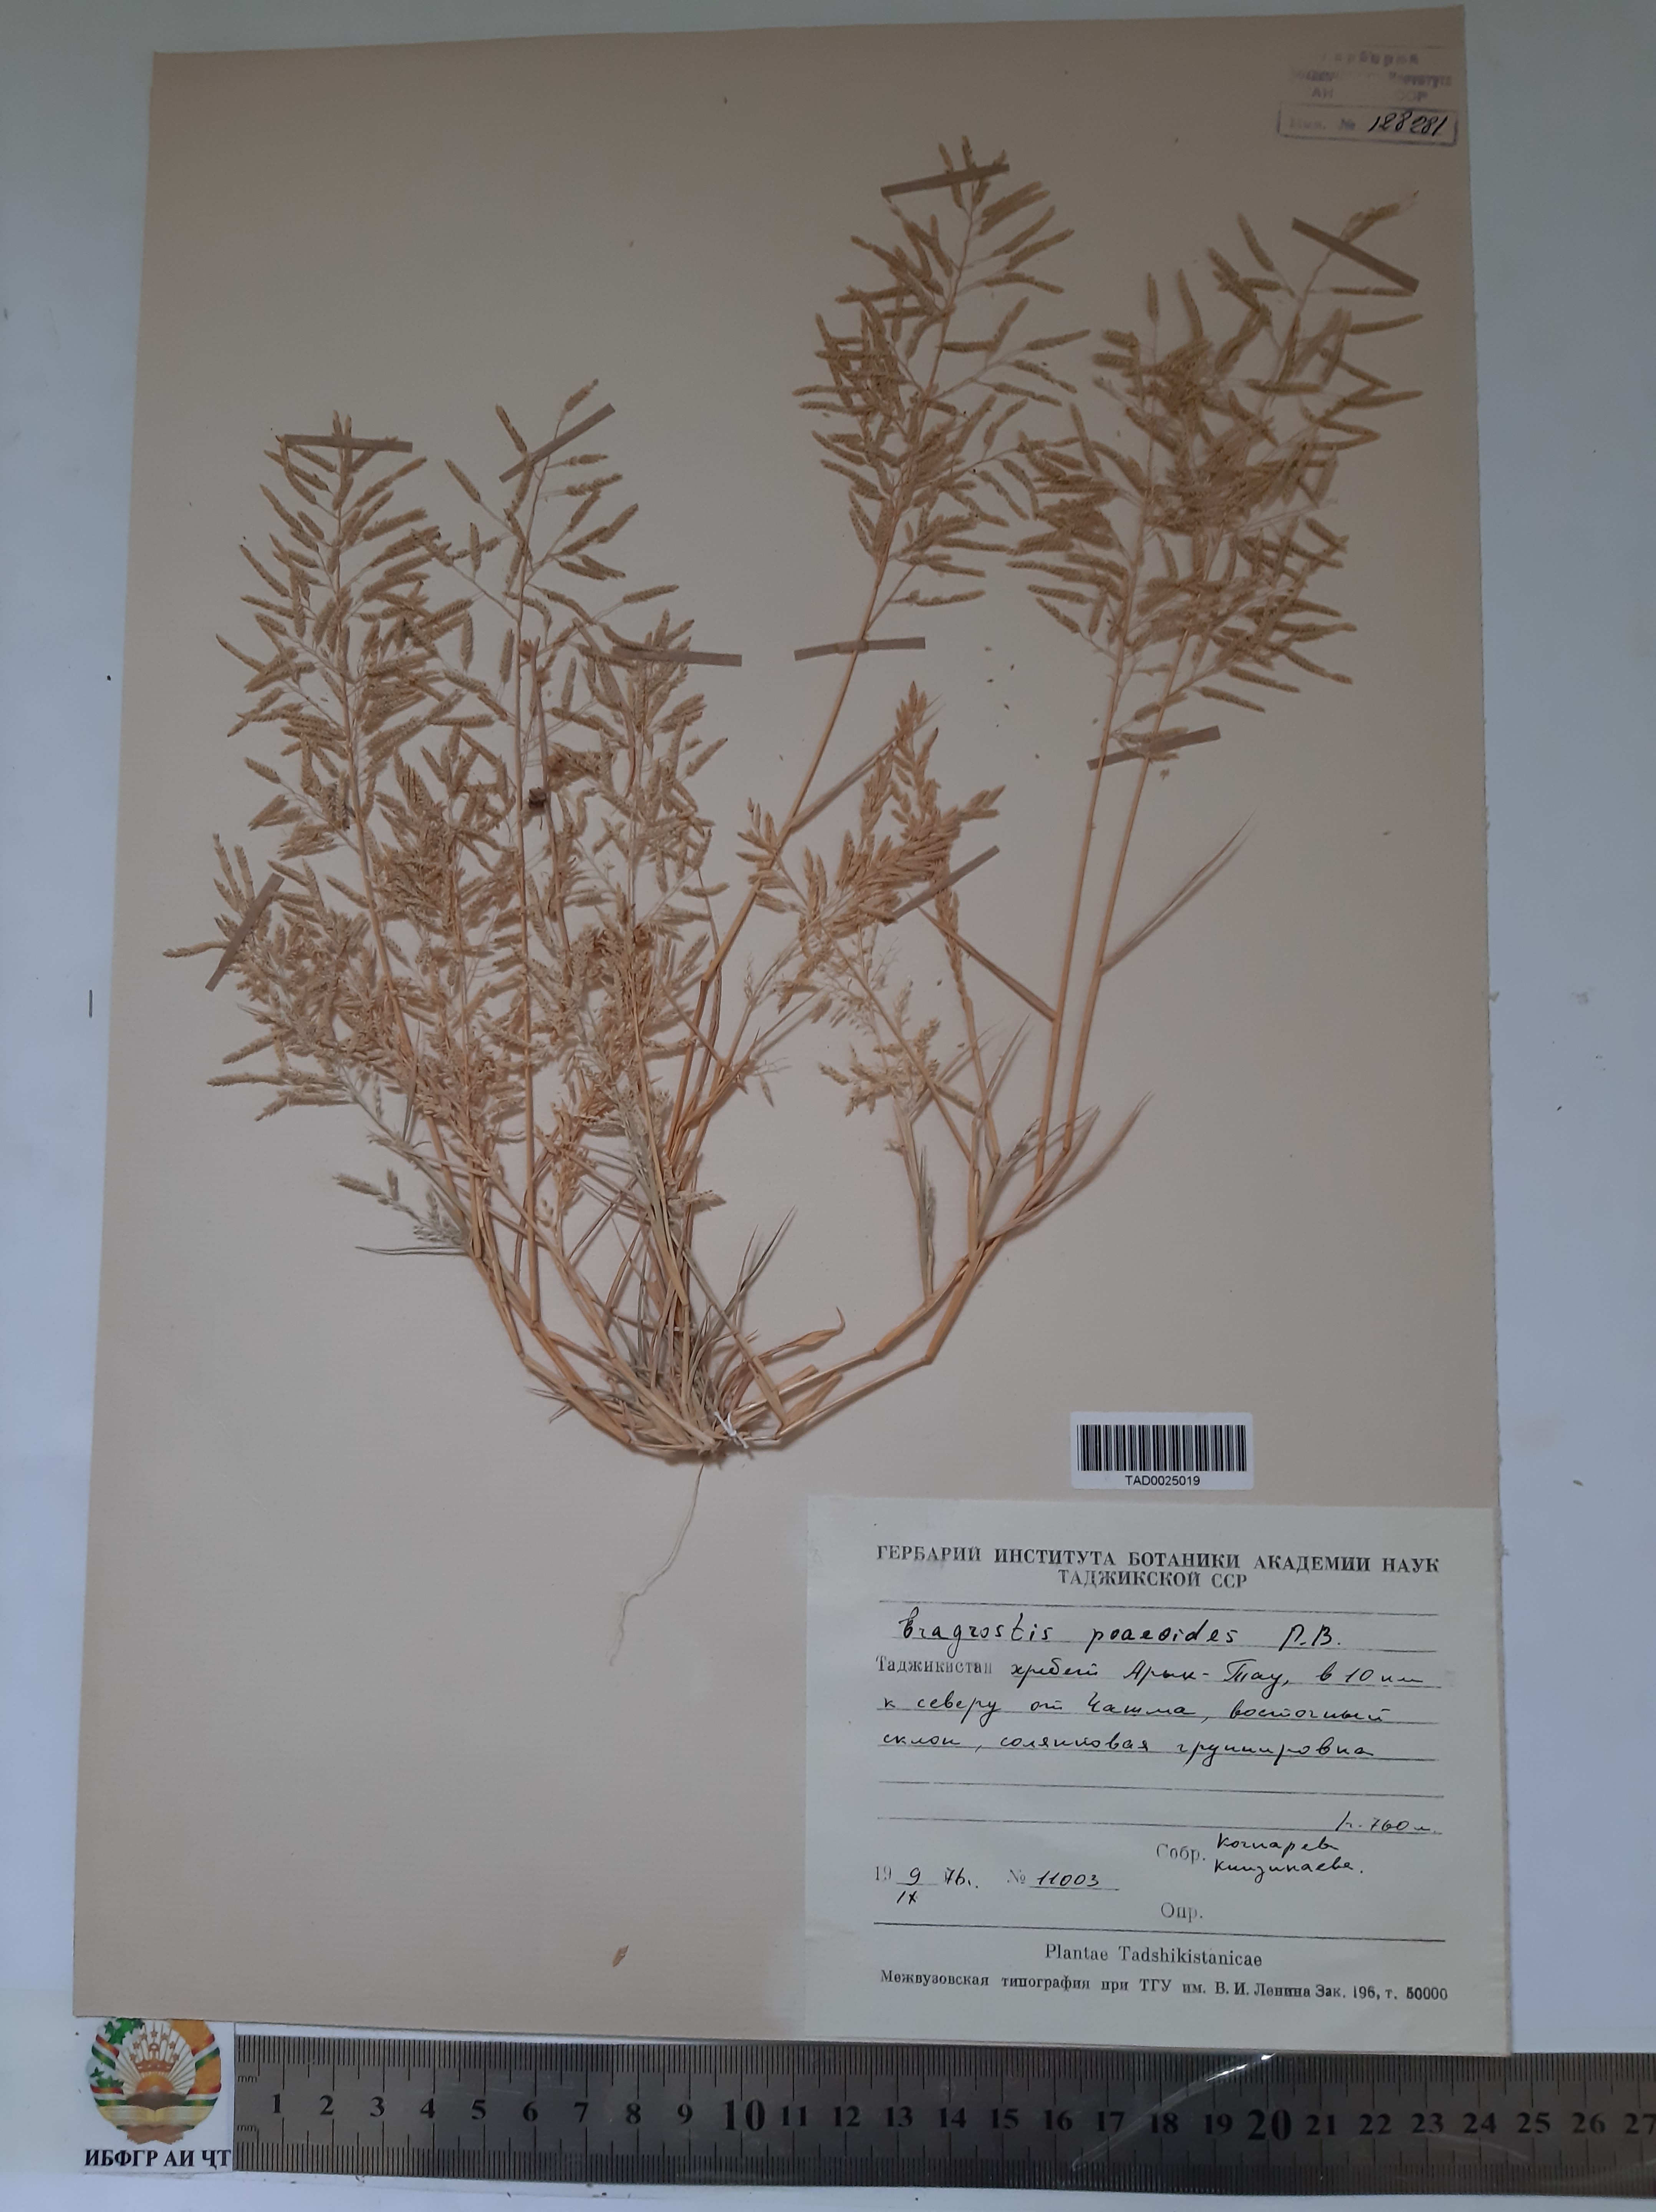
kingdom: Plantae
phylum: Tracheophyta
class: Liliopsida
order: Poales
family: Poaceae
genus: Eragrostis
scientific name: Eragrostis minor
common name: Small love-grass
